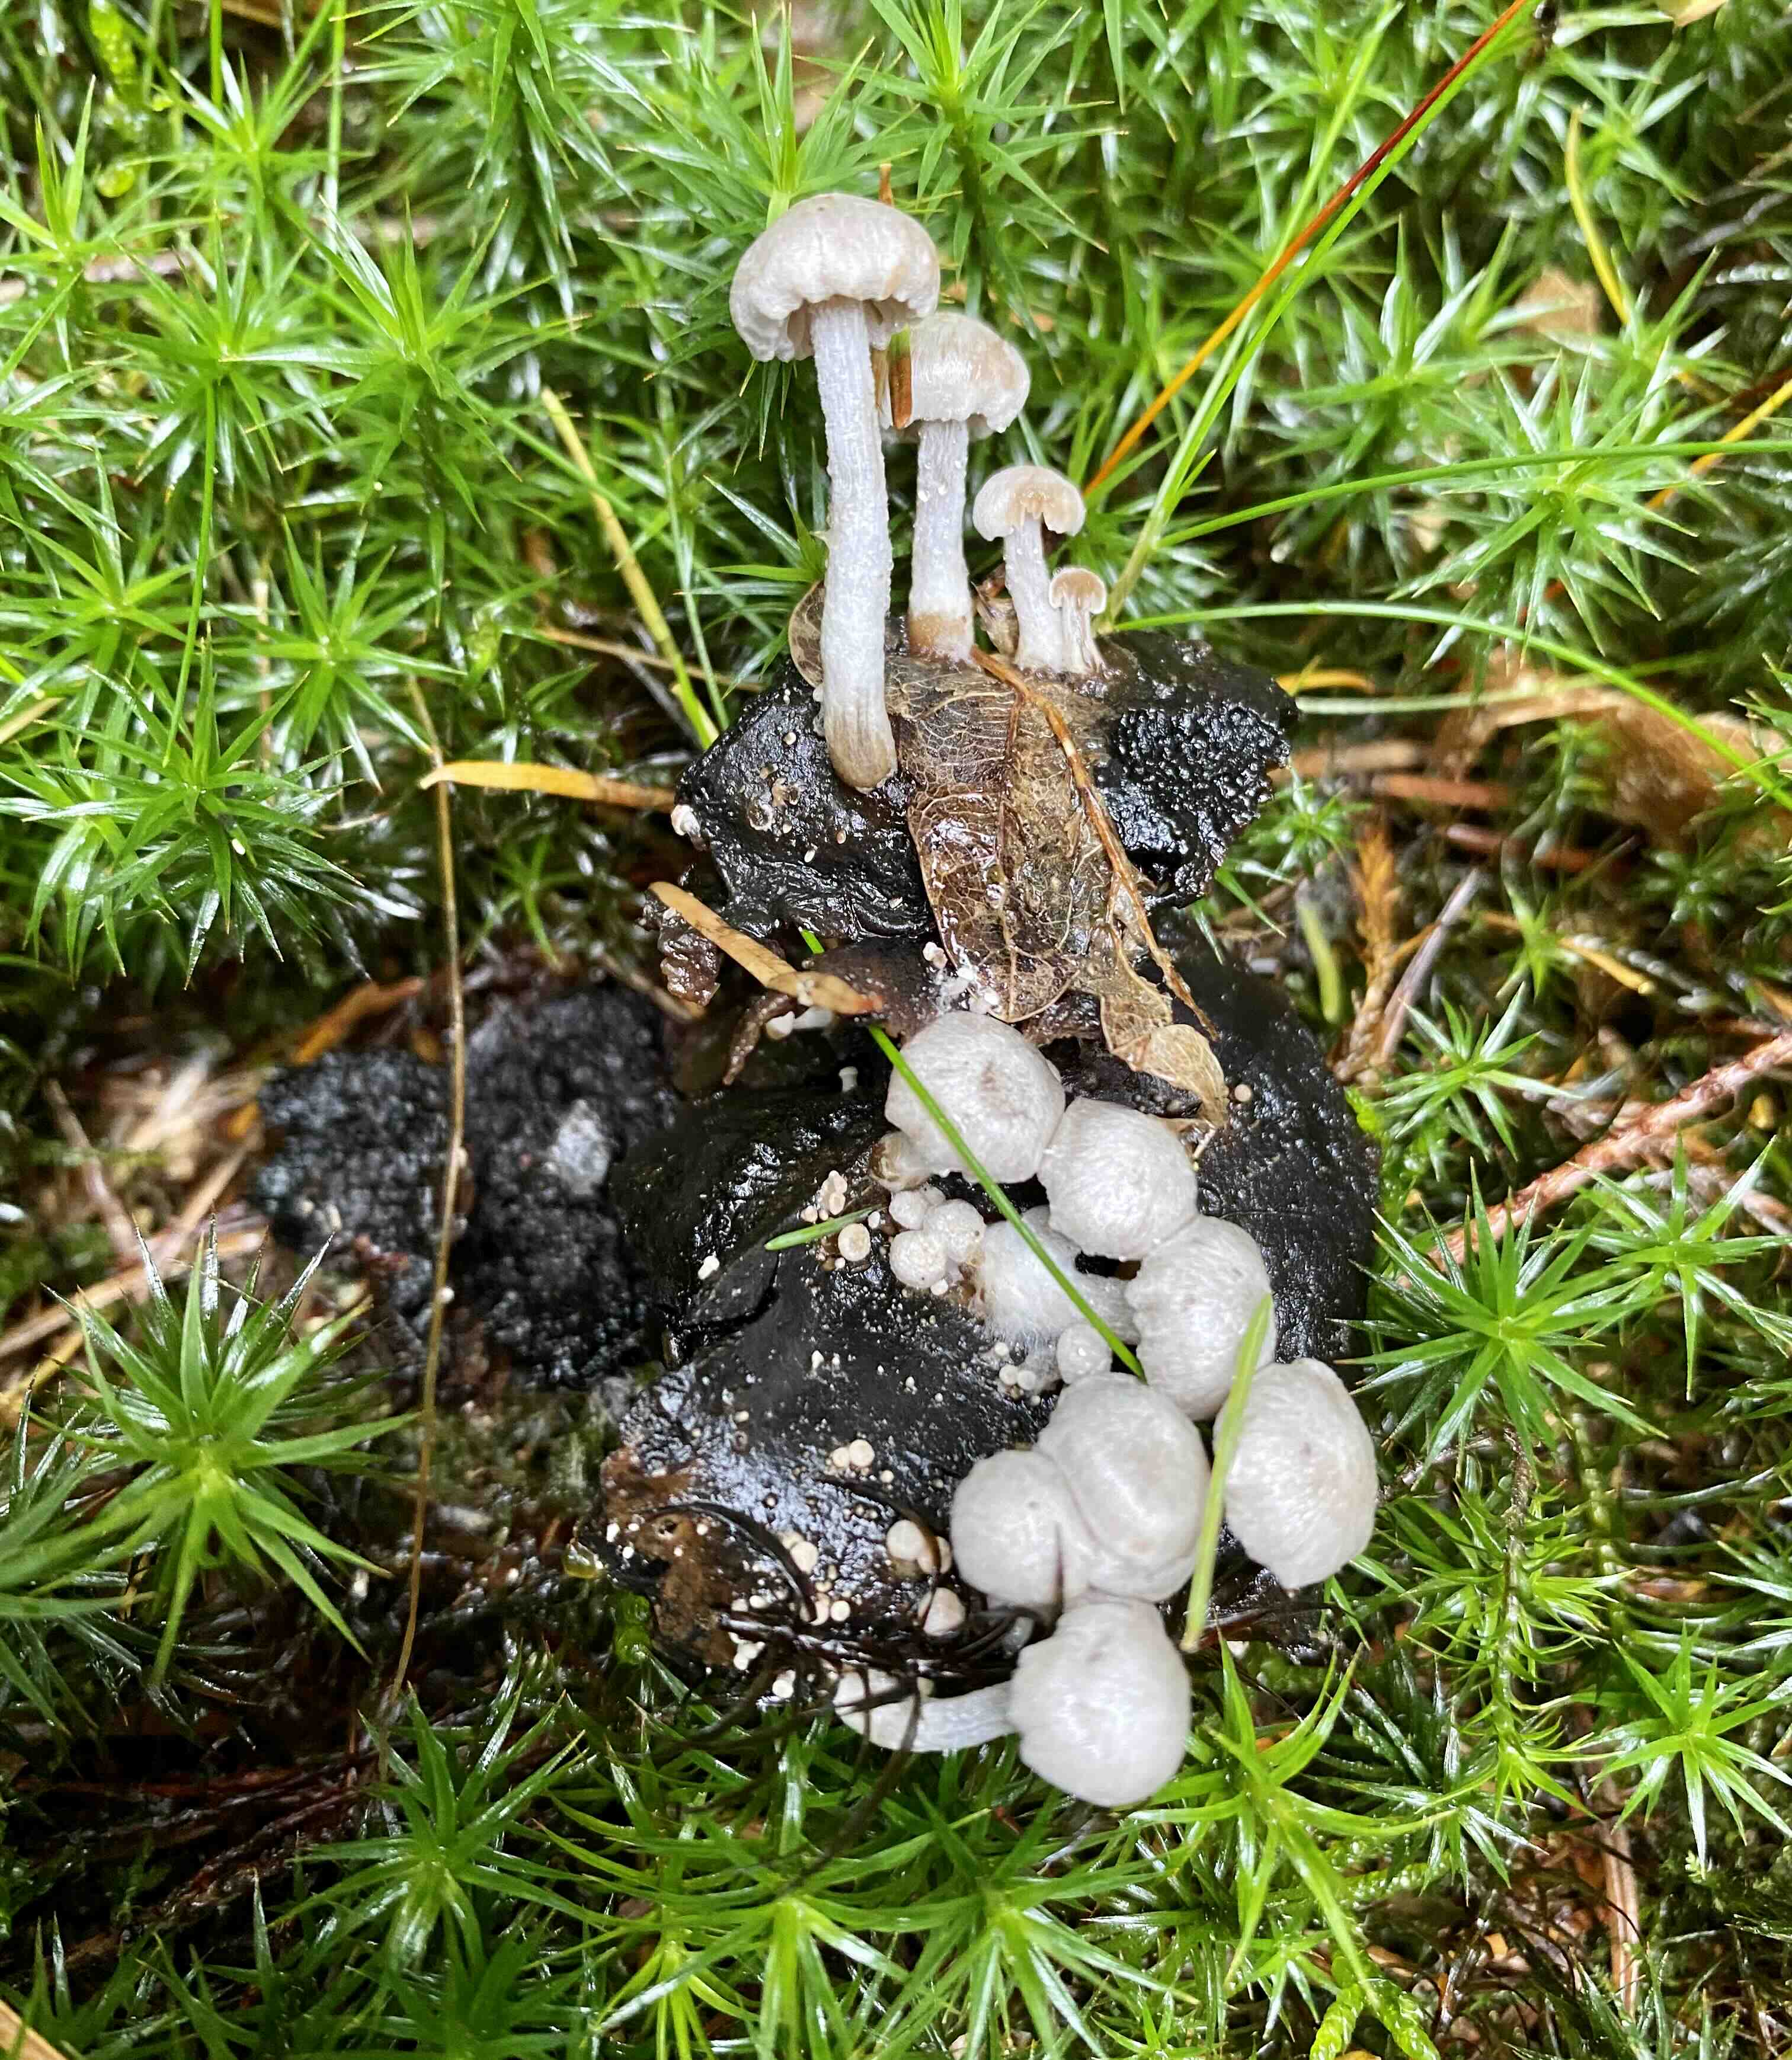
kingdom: Fungi
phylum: Basidiomycota
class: Agaricomycetes
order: Agaricales
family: Lyophyllaceae
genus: Asterophora
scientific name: Asterophora parasitica
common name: grå snyltehat
